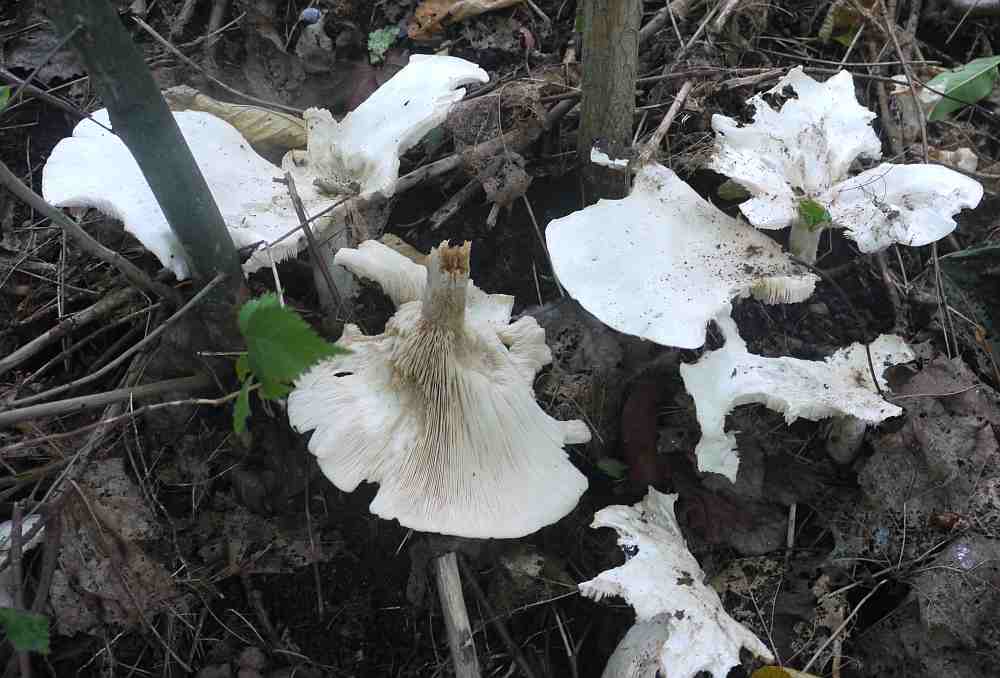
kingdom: Fungi
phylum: Basidiomycota
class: Agaricomycetes
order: Agaricales
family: Tricholomataceae
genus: Aspropaxillus
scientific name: Aspropaxillus giganteus
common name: kæmpe-tragtridderhat
